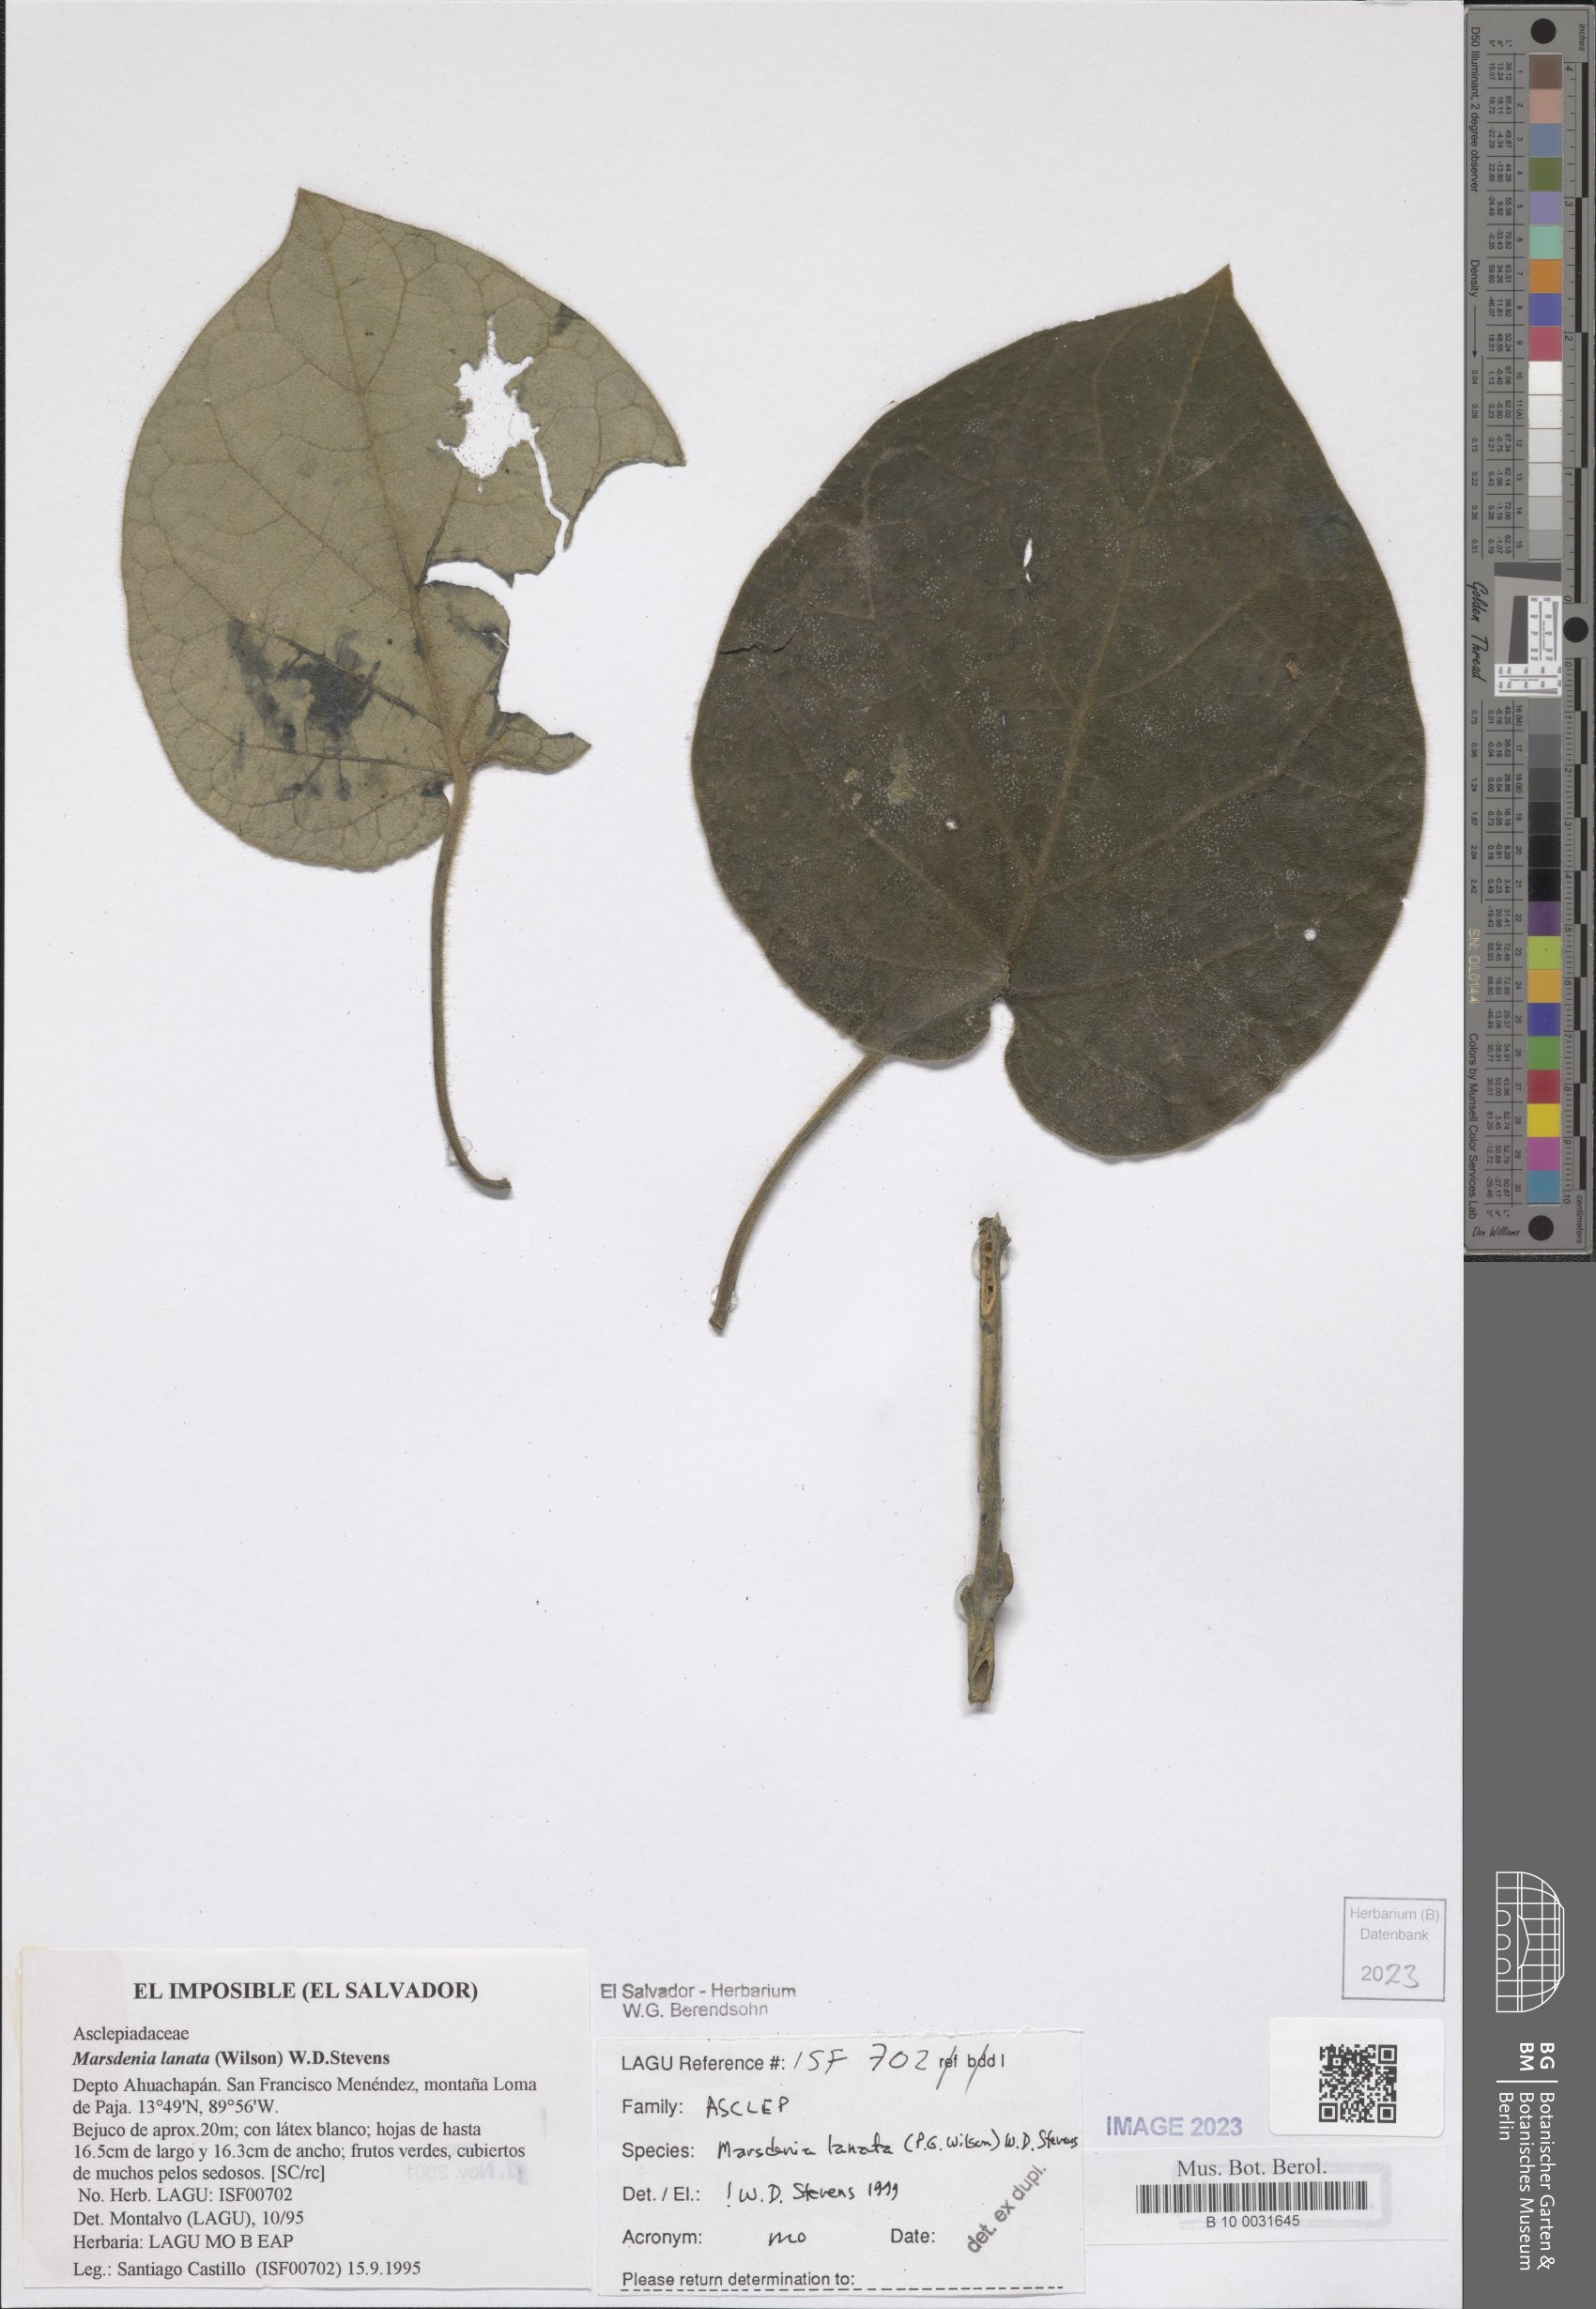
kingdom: Plantae
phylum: Tracheophyta
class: Magnoliopsida
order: Gentianales
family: Apocynaceae
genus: Ruehssia
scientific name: Ruehssia lanata
